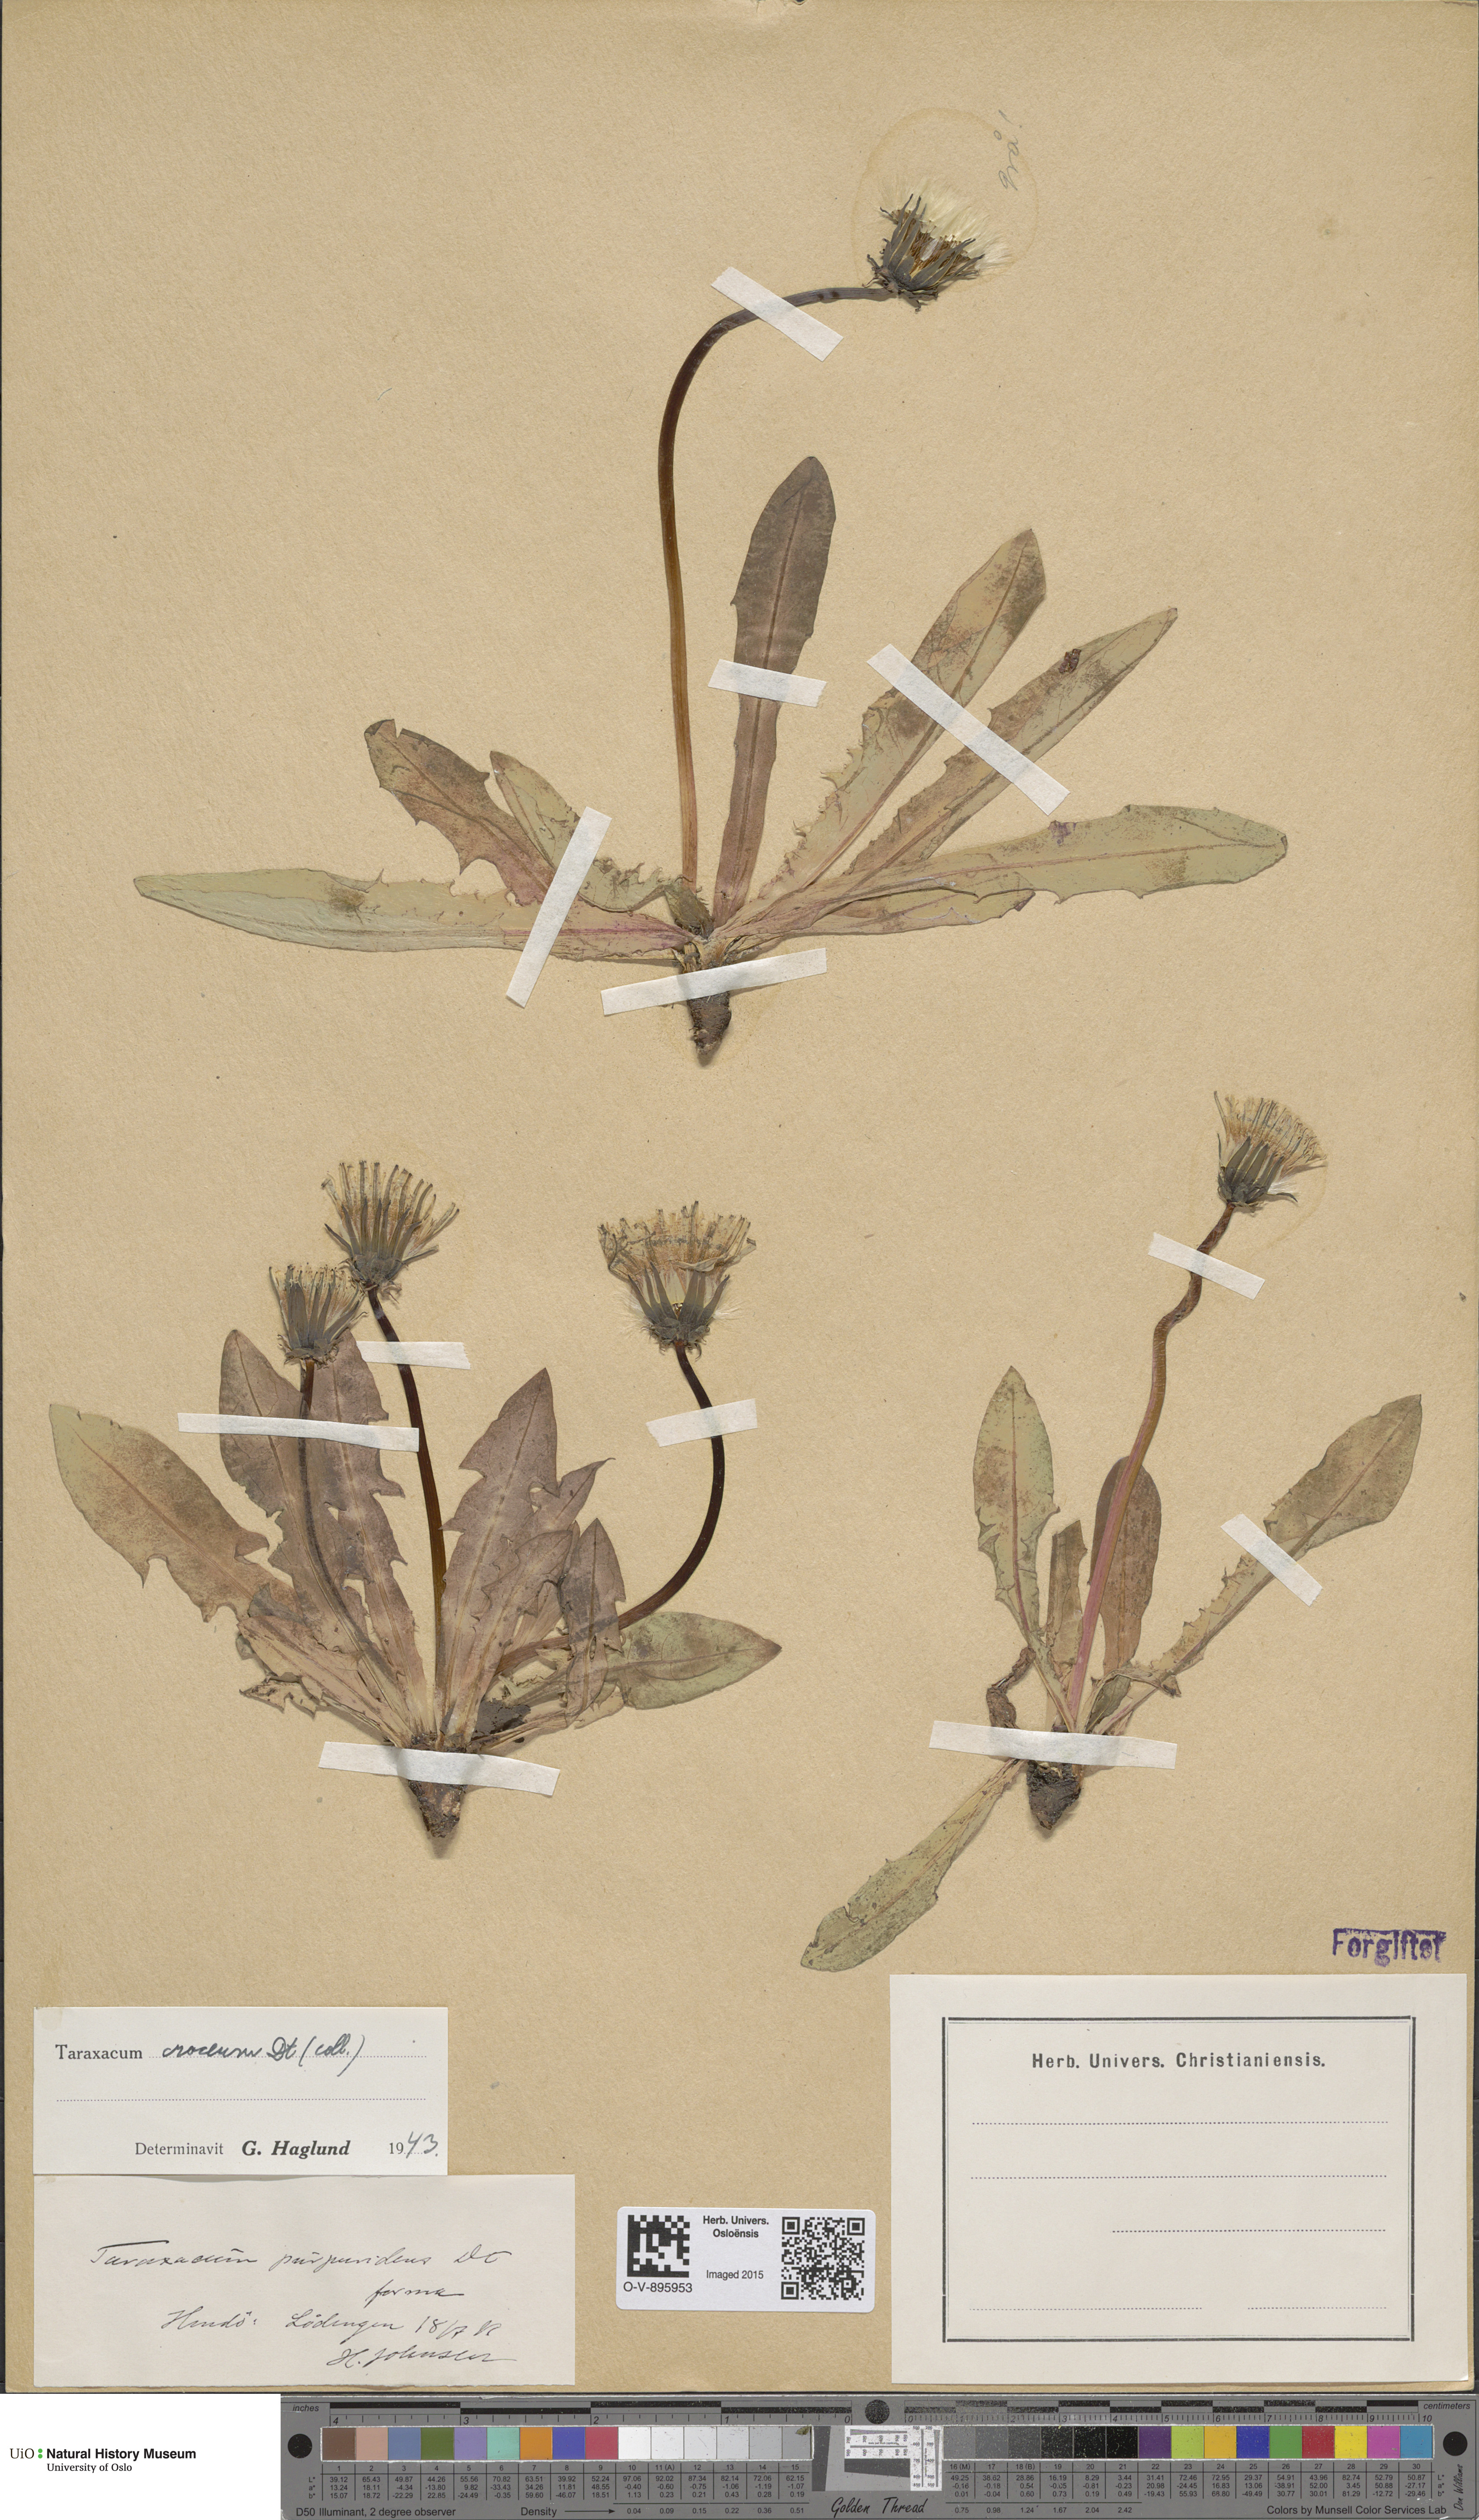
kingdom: Plantae
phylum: Tracheophyta
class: Magnoliopsida
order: Asterales
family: Asteraceae
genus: Taraxacum
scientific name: Taraxacum croceum
